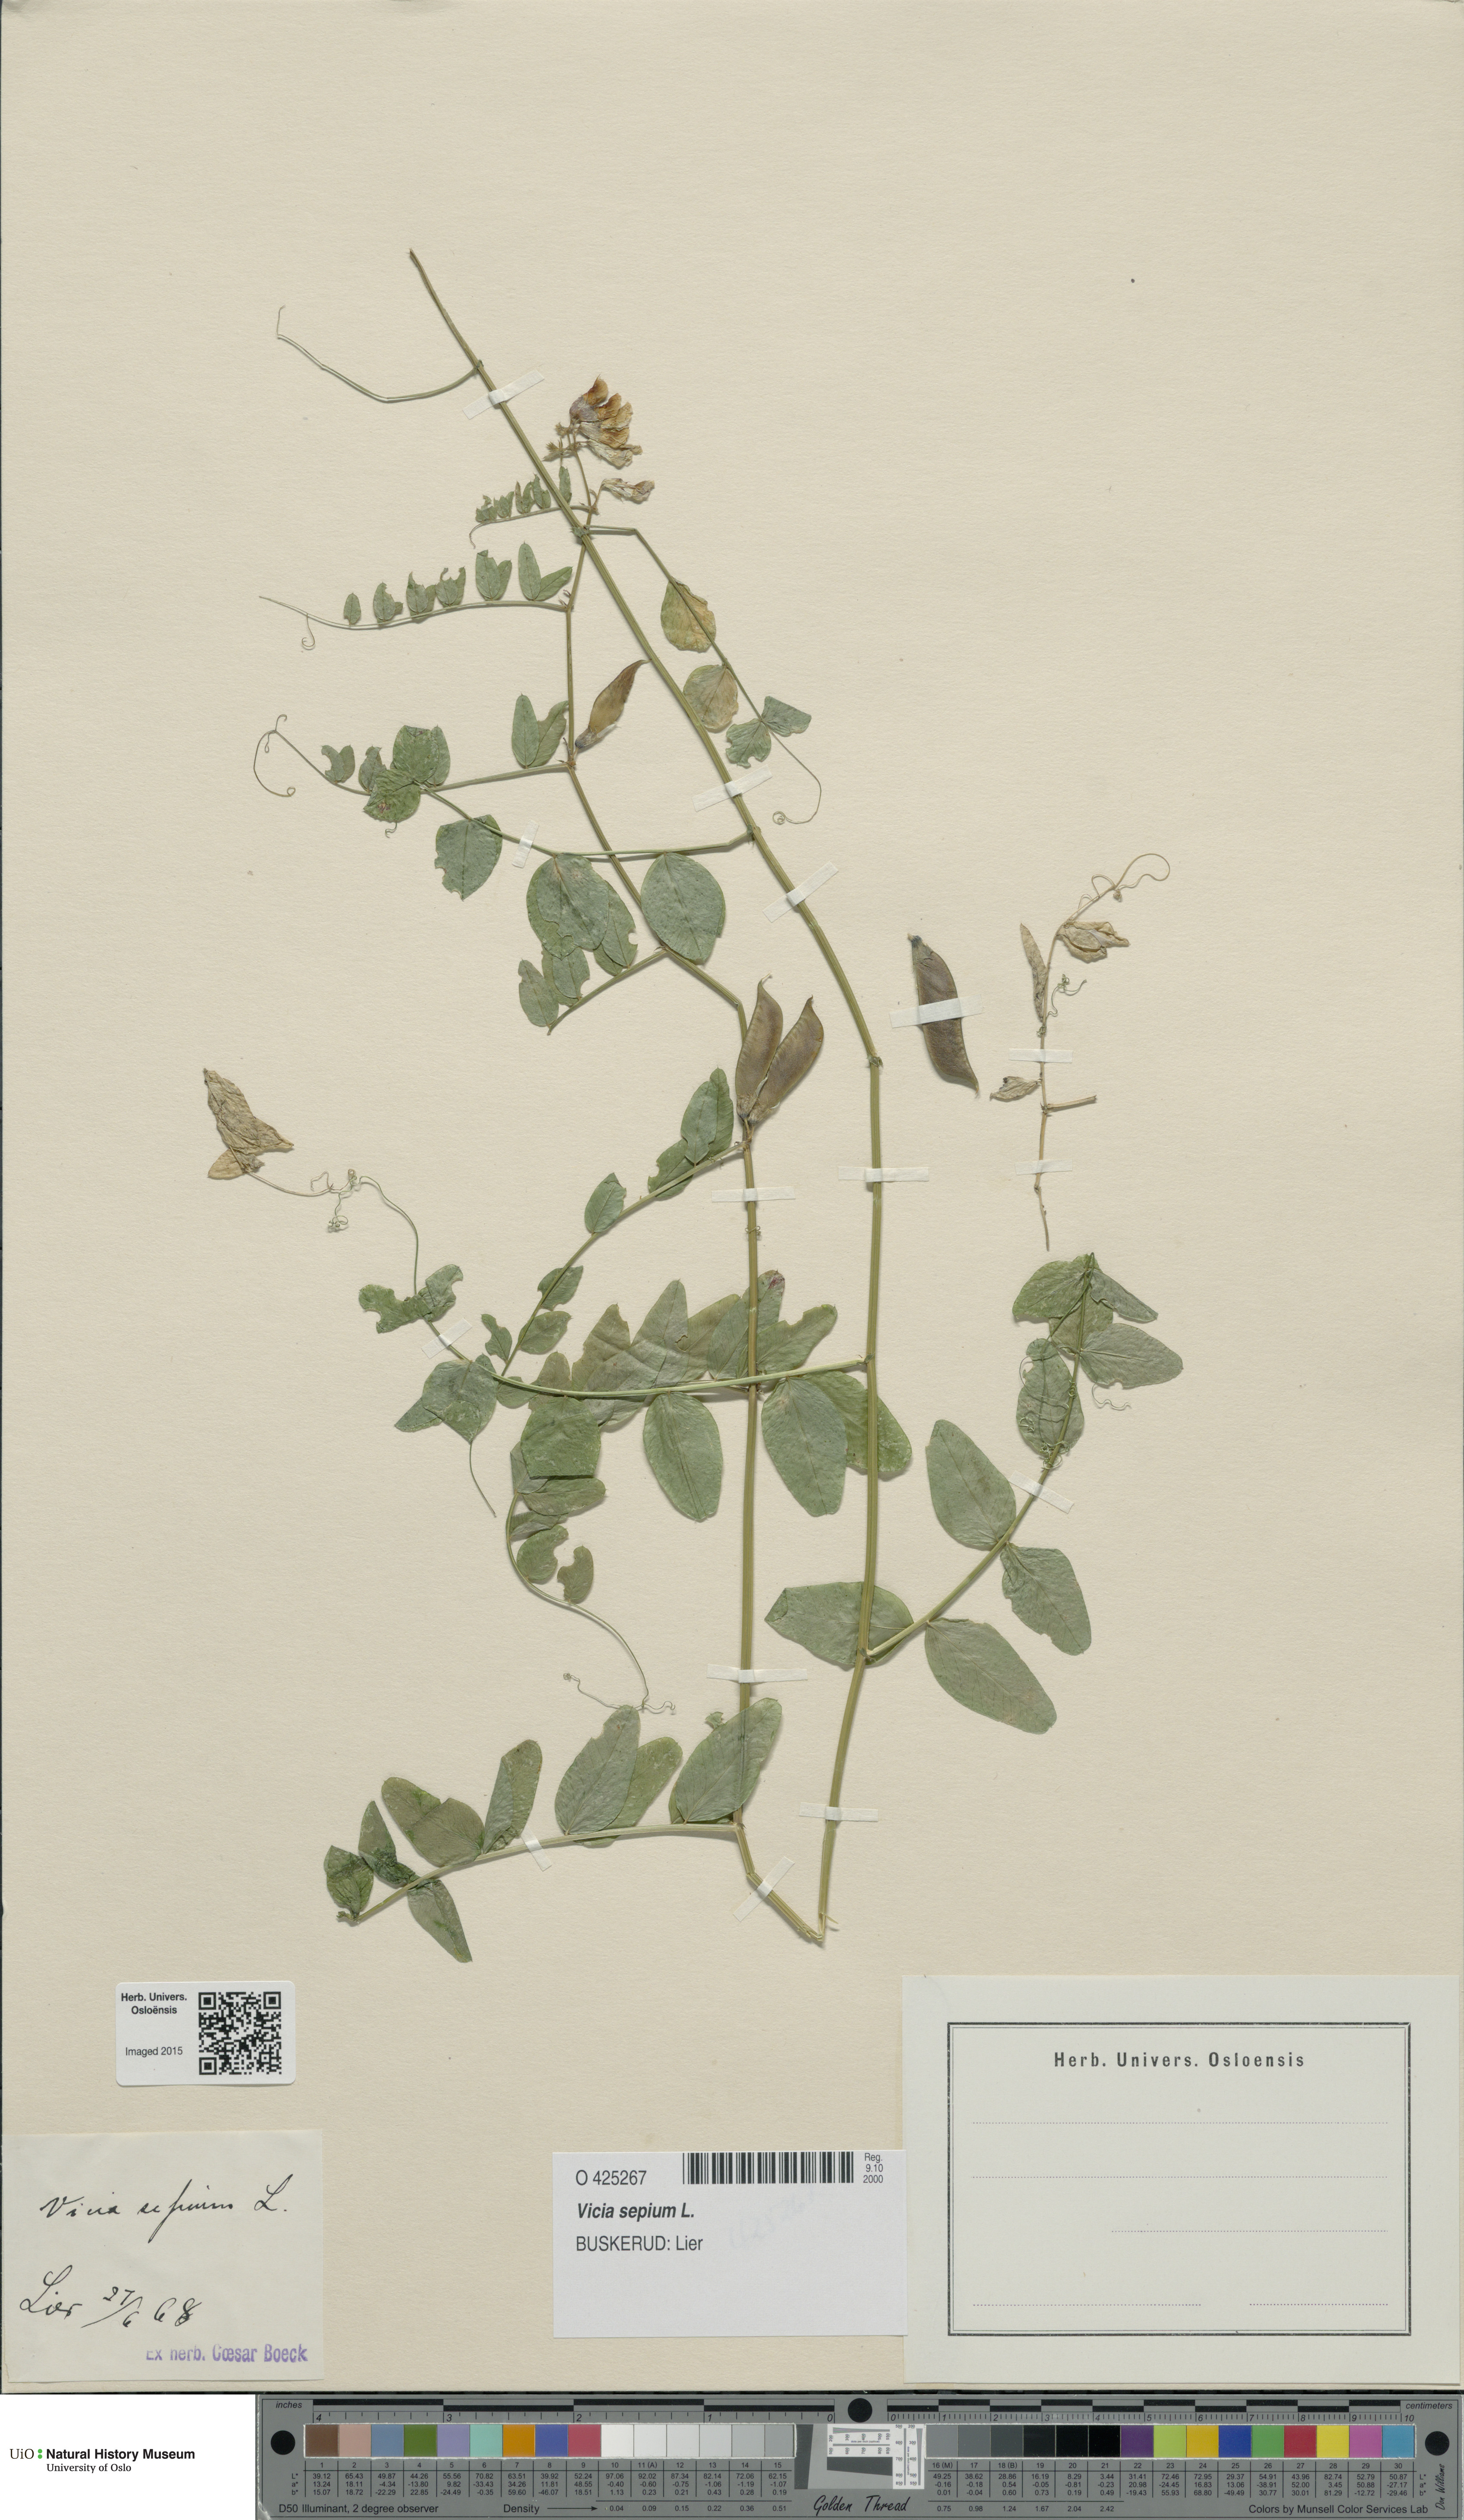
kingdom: Plantae
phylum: Tracheophyta
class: Magnoliopsida
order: Fabales
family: Fabaceae
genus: Vicia
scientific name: Vicia sepium
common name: Bush vetch
